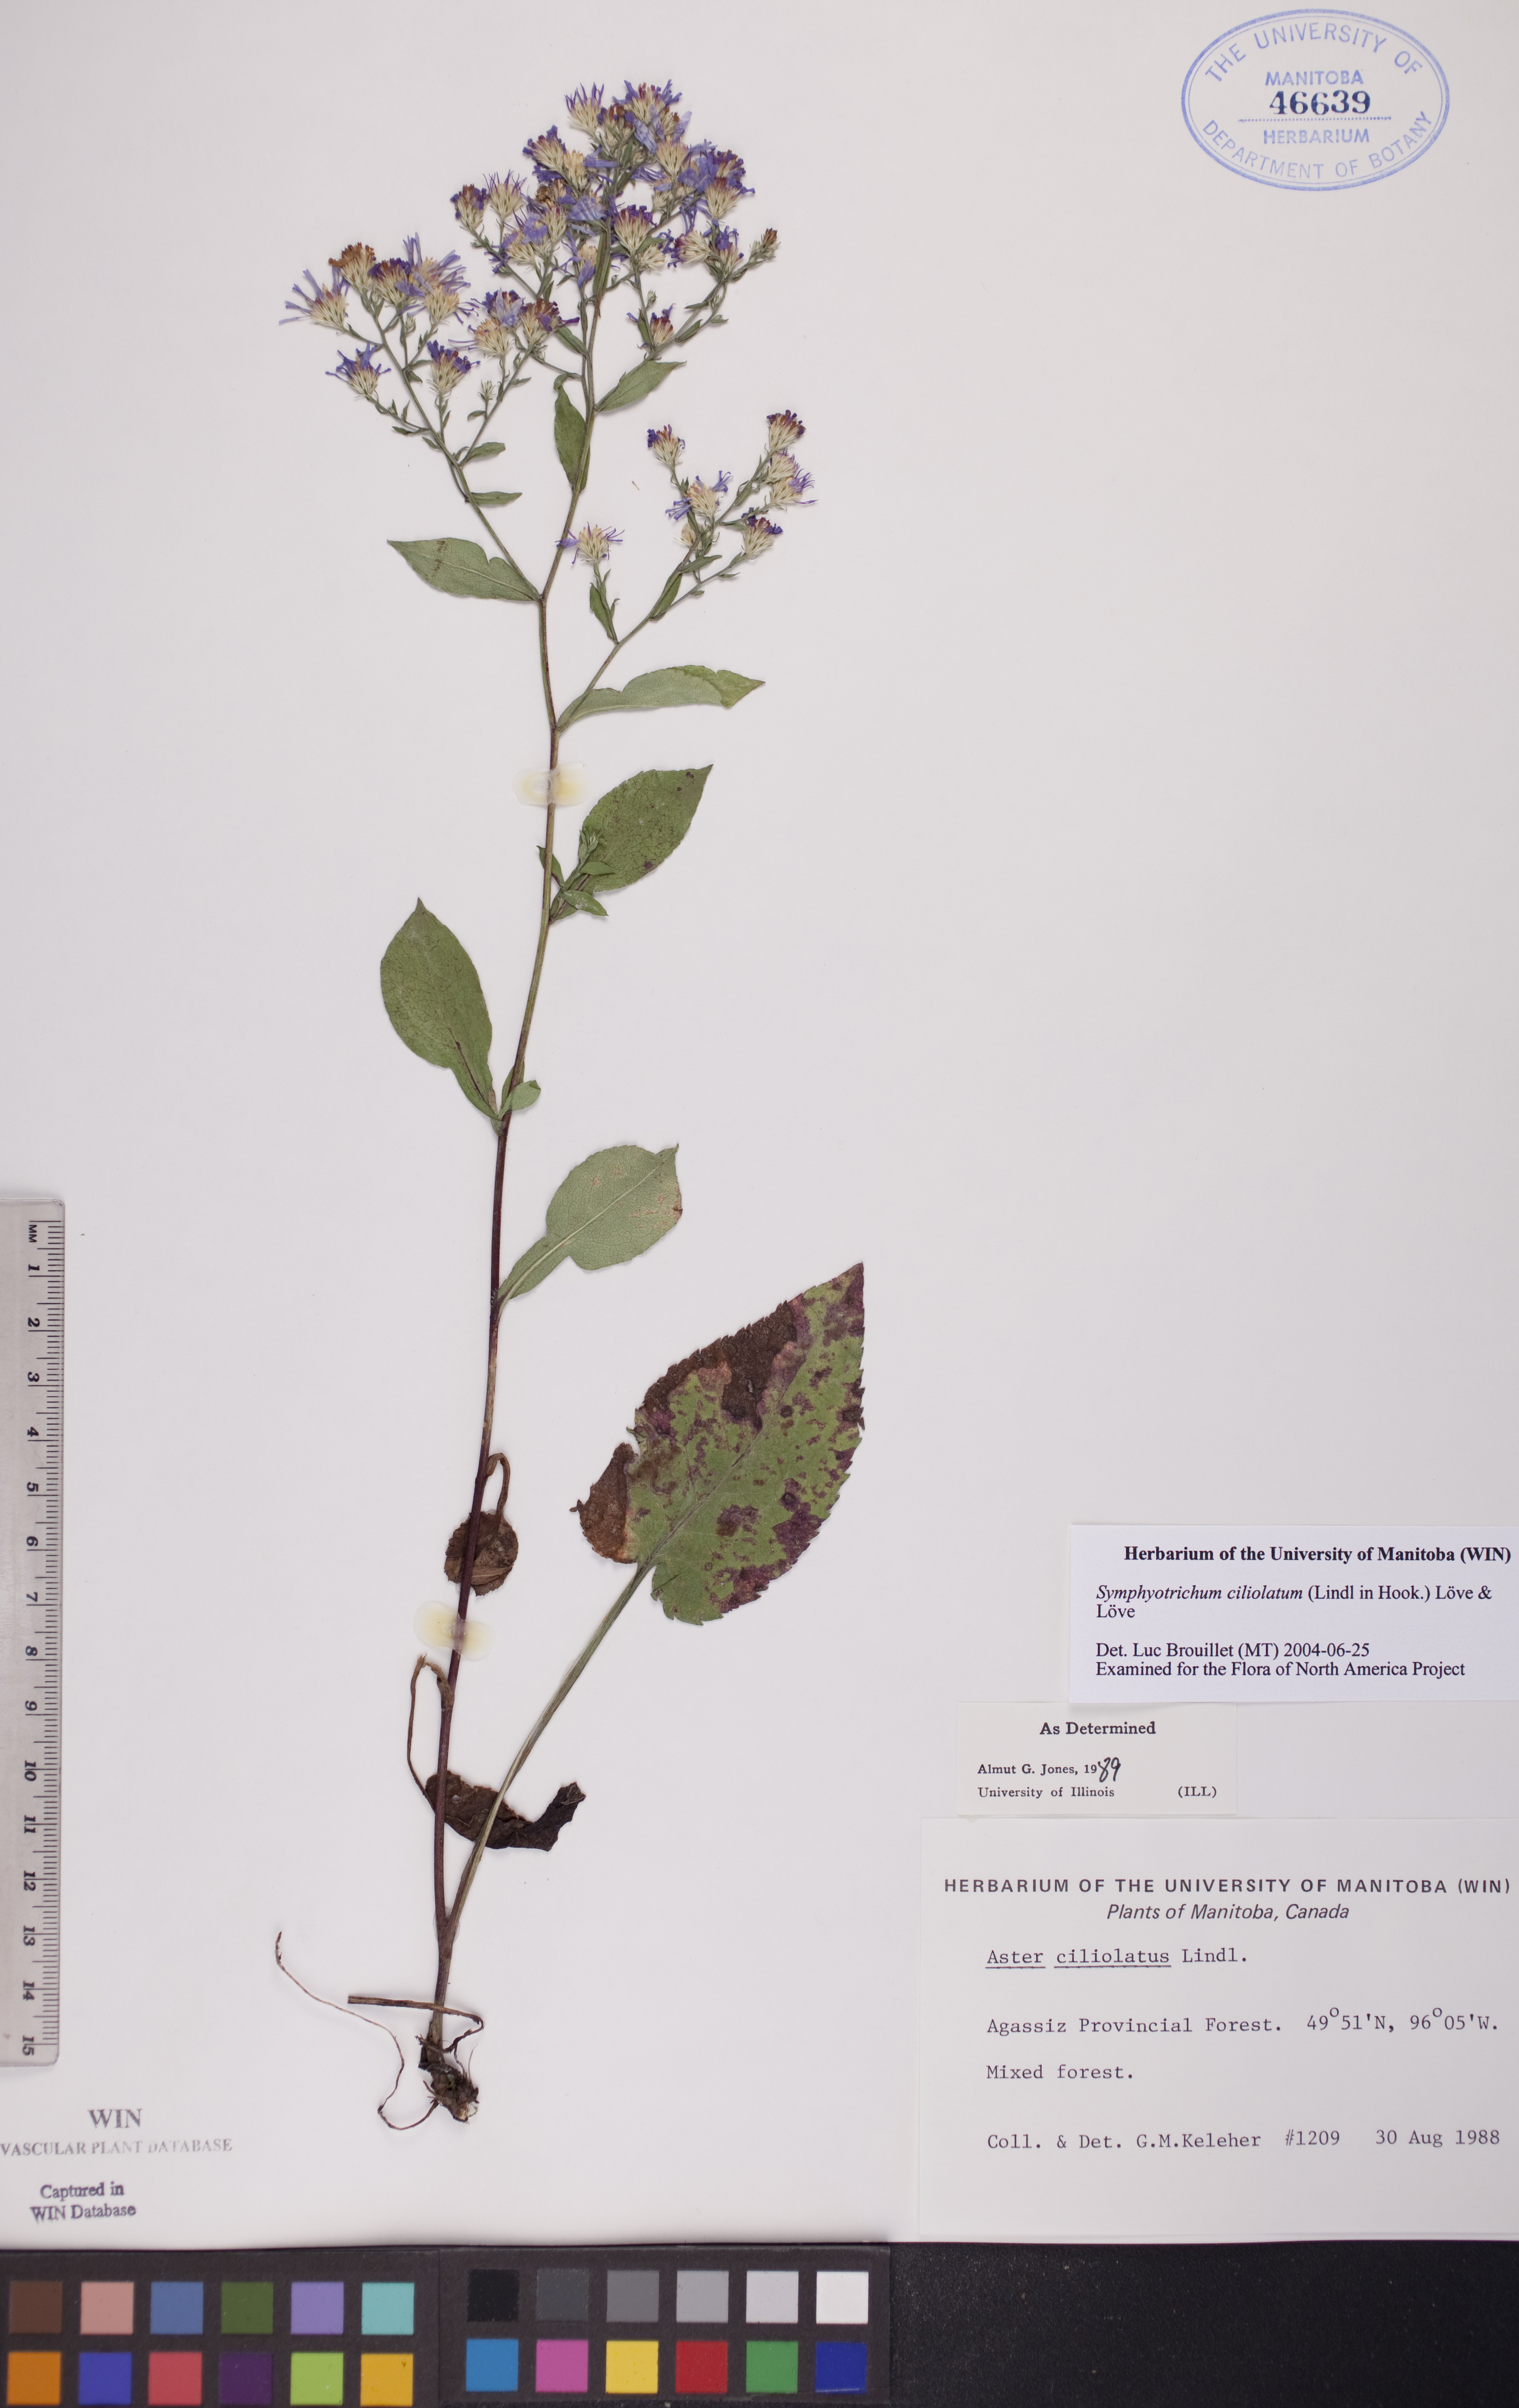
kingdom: Plantae
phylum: Tracheophyta
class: Magnoliopsida
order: Asterales
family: Asteraceae
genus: Symphyotrichum
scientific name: Symphyotrichum ciliolatum
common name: Fringed blue aster
